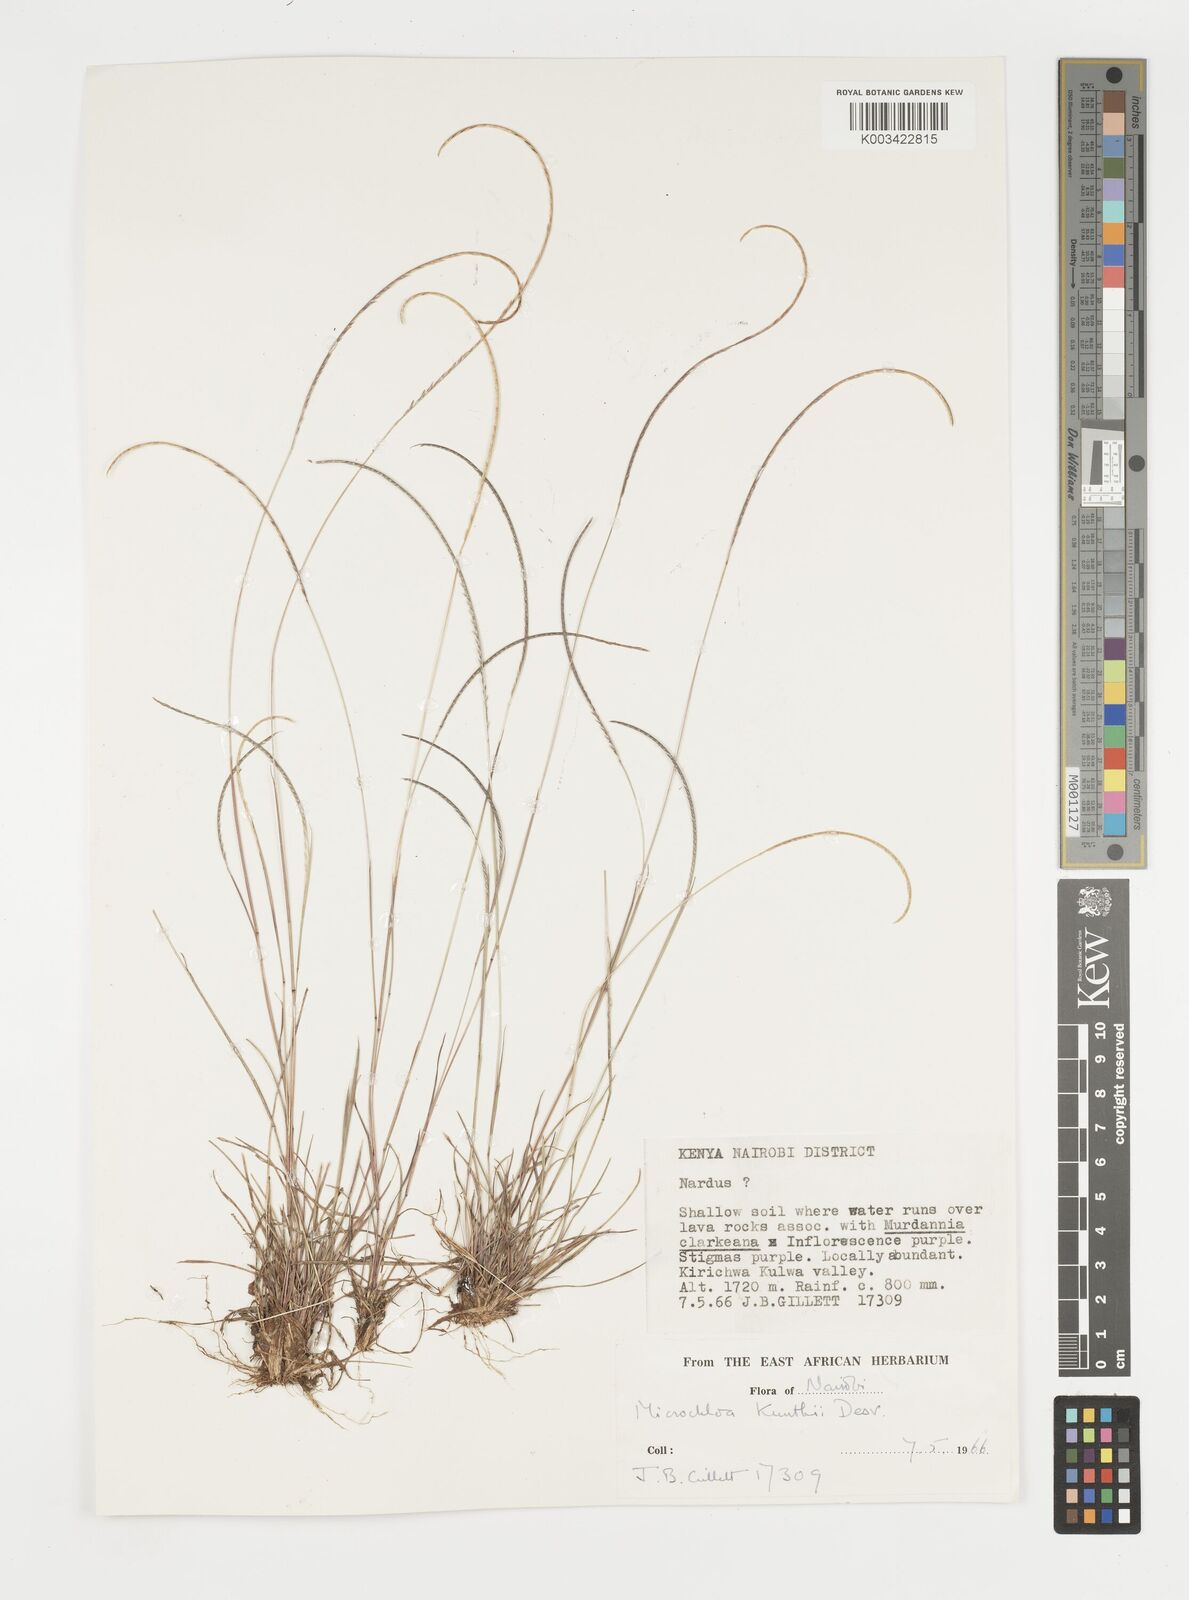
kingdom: Plantae
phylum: Tracheophyta
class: Liliopsida
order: Poales
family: Poaceae
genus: Microchloa
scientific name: Microchloa kunthii
